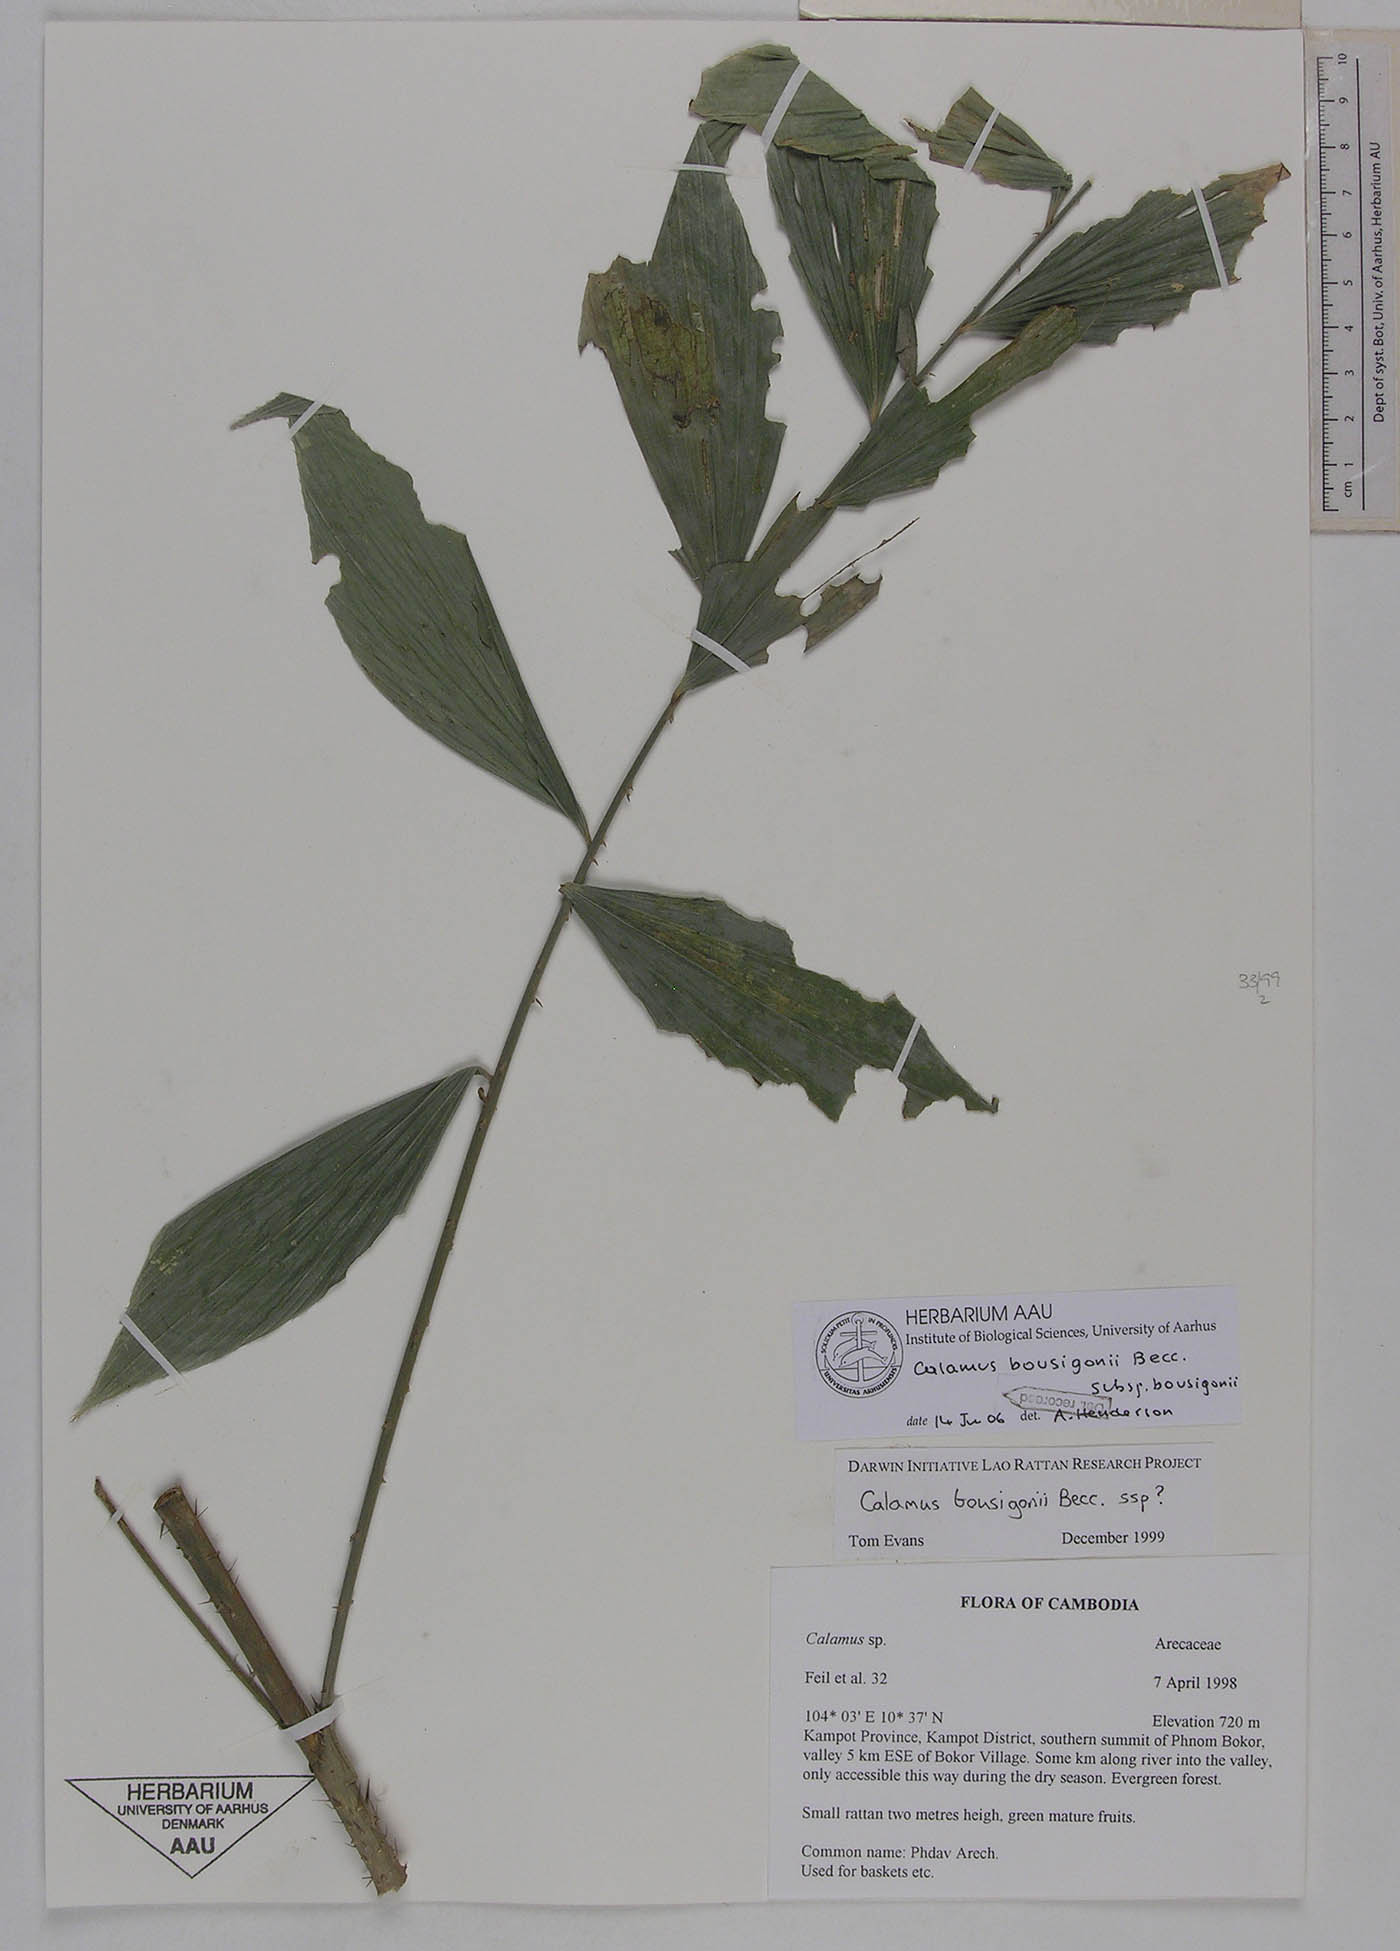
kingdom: Plantae
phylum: Tracheophyta
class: Liliopsida
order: Arecales
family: Arecaceae
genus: Calamus
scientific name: Calamus bousigonii
